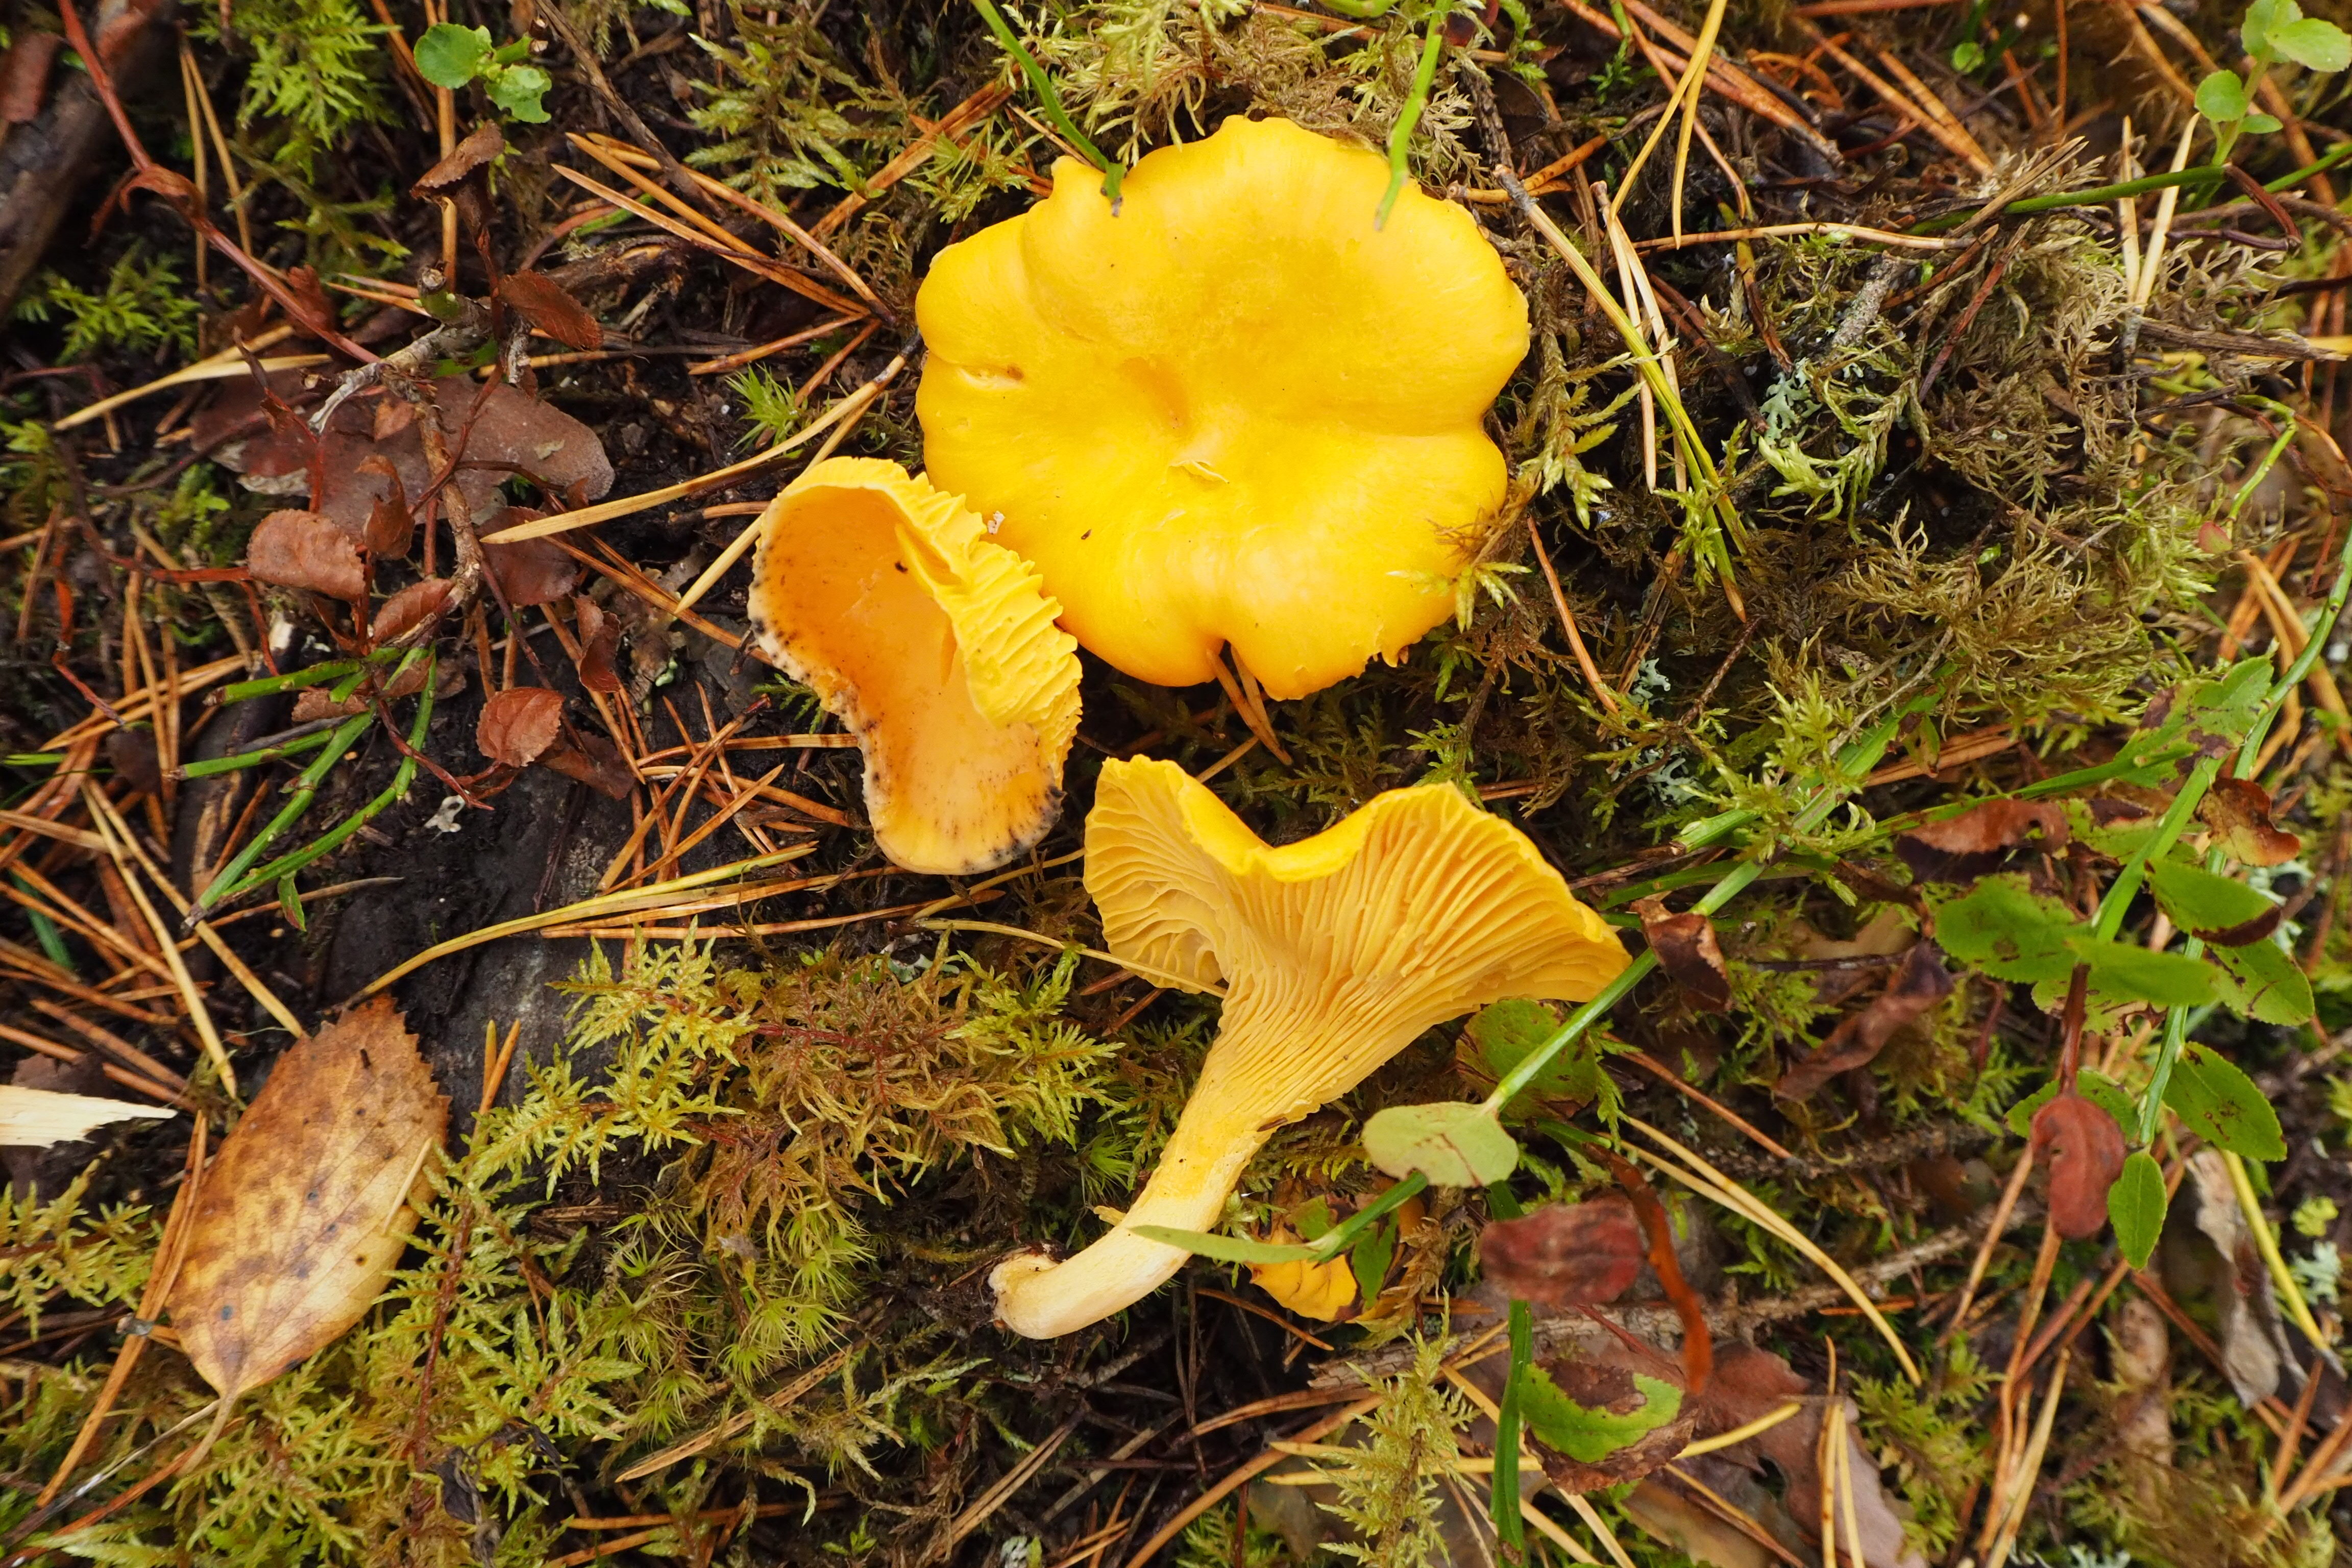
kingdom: Fungi
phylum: Basidiomycota
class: Agaricomycetes
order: Cantharellales
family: Hydnaceae
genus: Cantharellus
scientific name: Cantharellus cibarius
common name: Chanterelle
